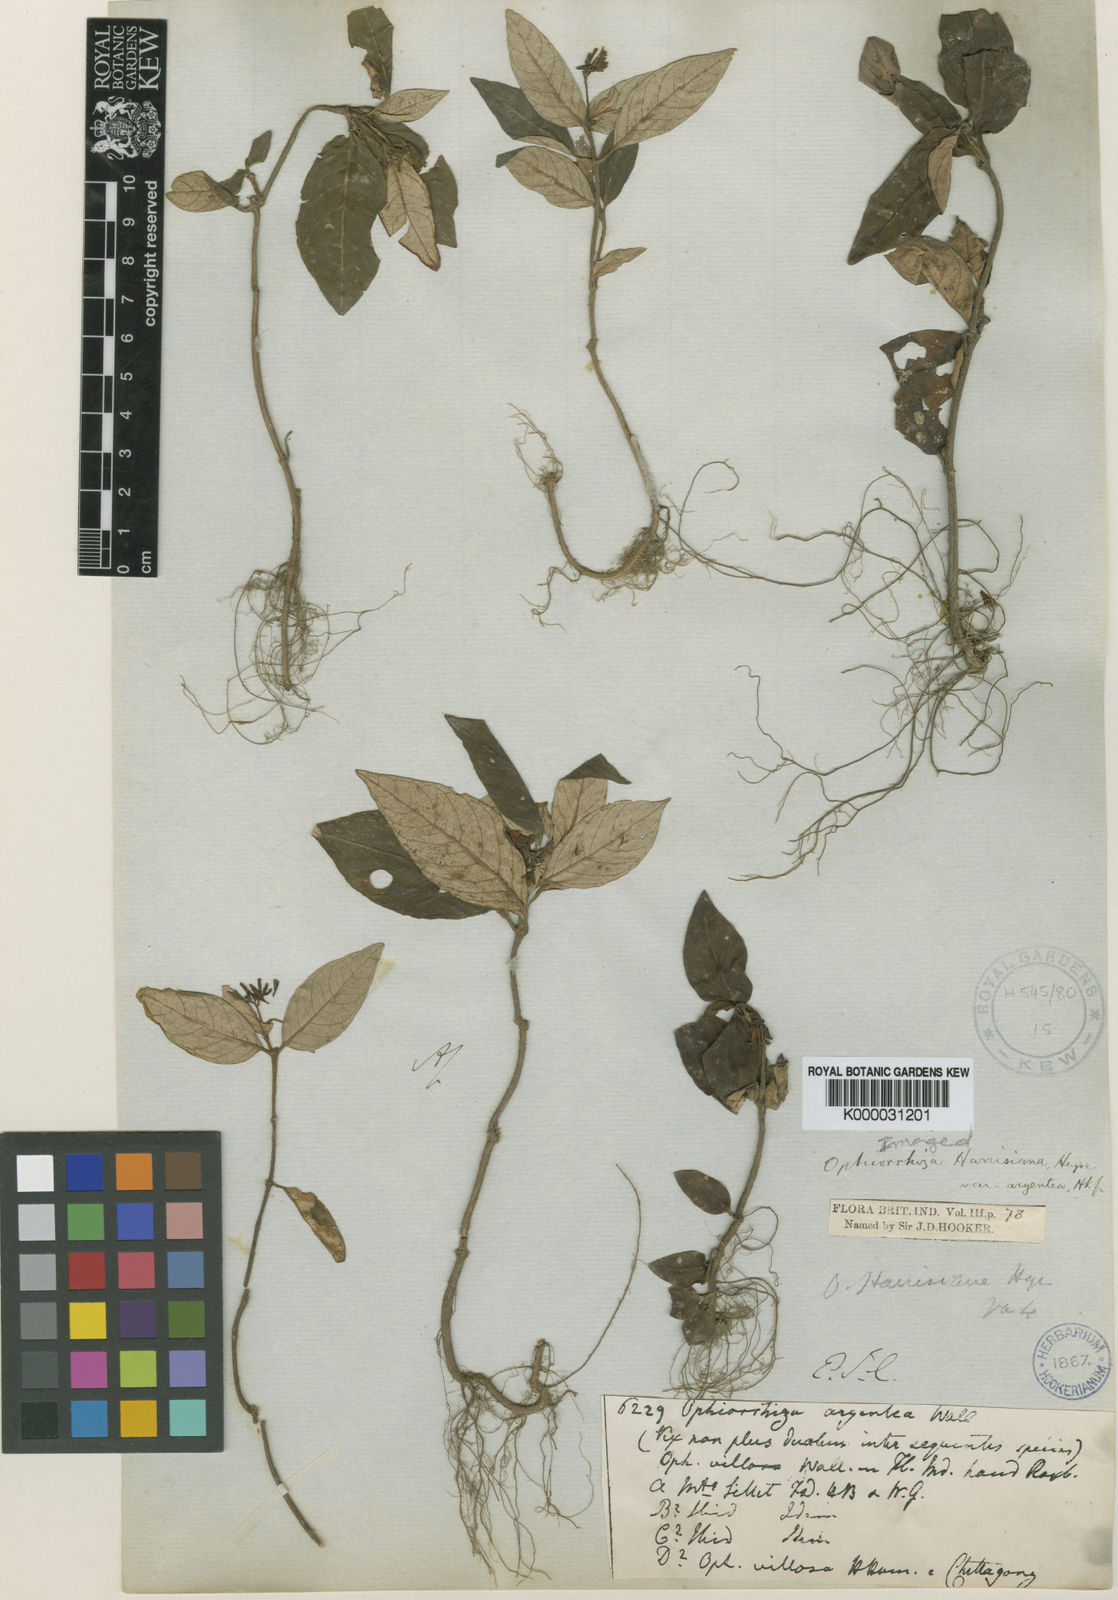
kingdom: Plantae
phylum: Tracheophyta
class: Magnoliopsida
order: Gentianales
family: Rubiaceae
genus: Ophiorrhiza
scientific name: Ophiorrhiza rugosa
